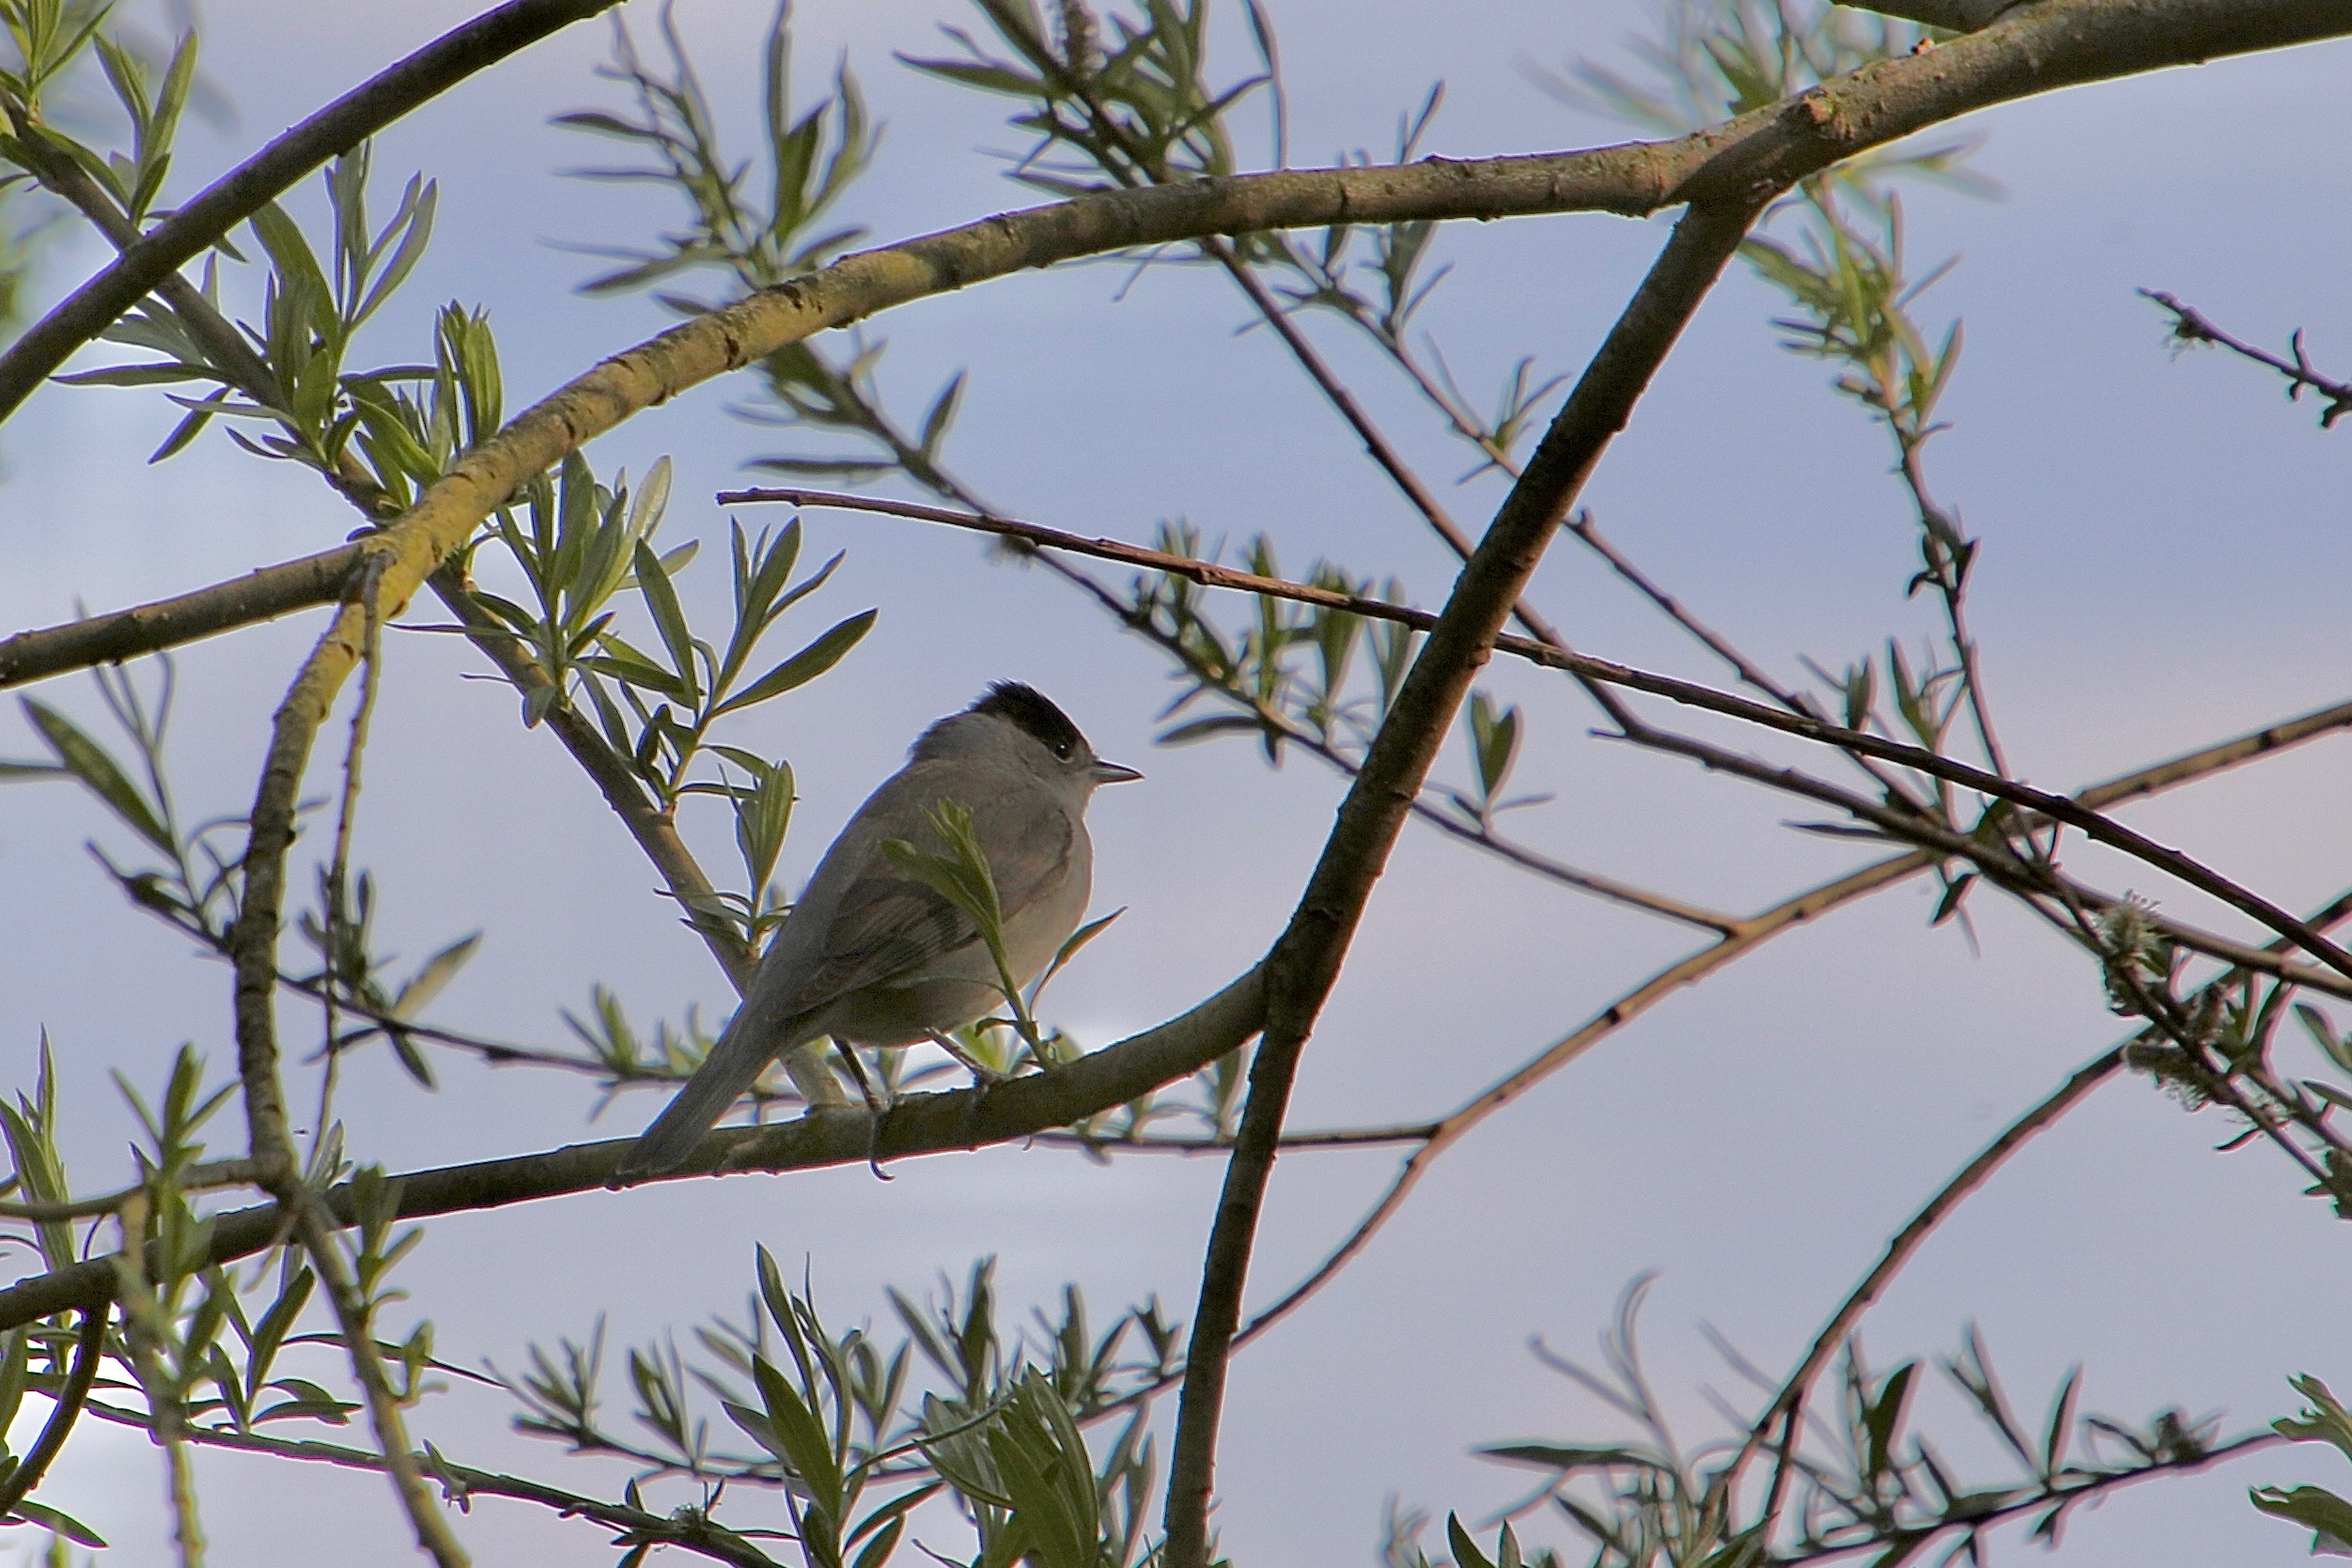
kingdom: Animalia
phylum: Chordata
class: Aves
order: Passeriformes
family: Sylviidae
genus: Sylvia
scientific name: Sylvia atricapilla
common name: Munk
